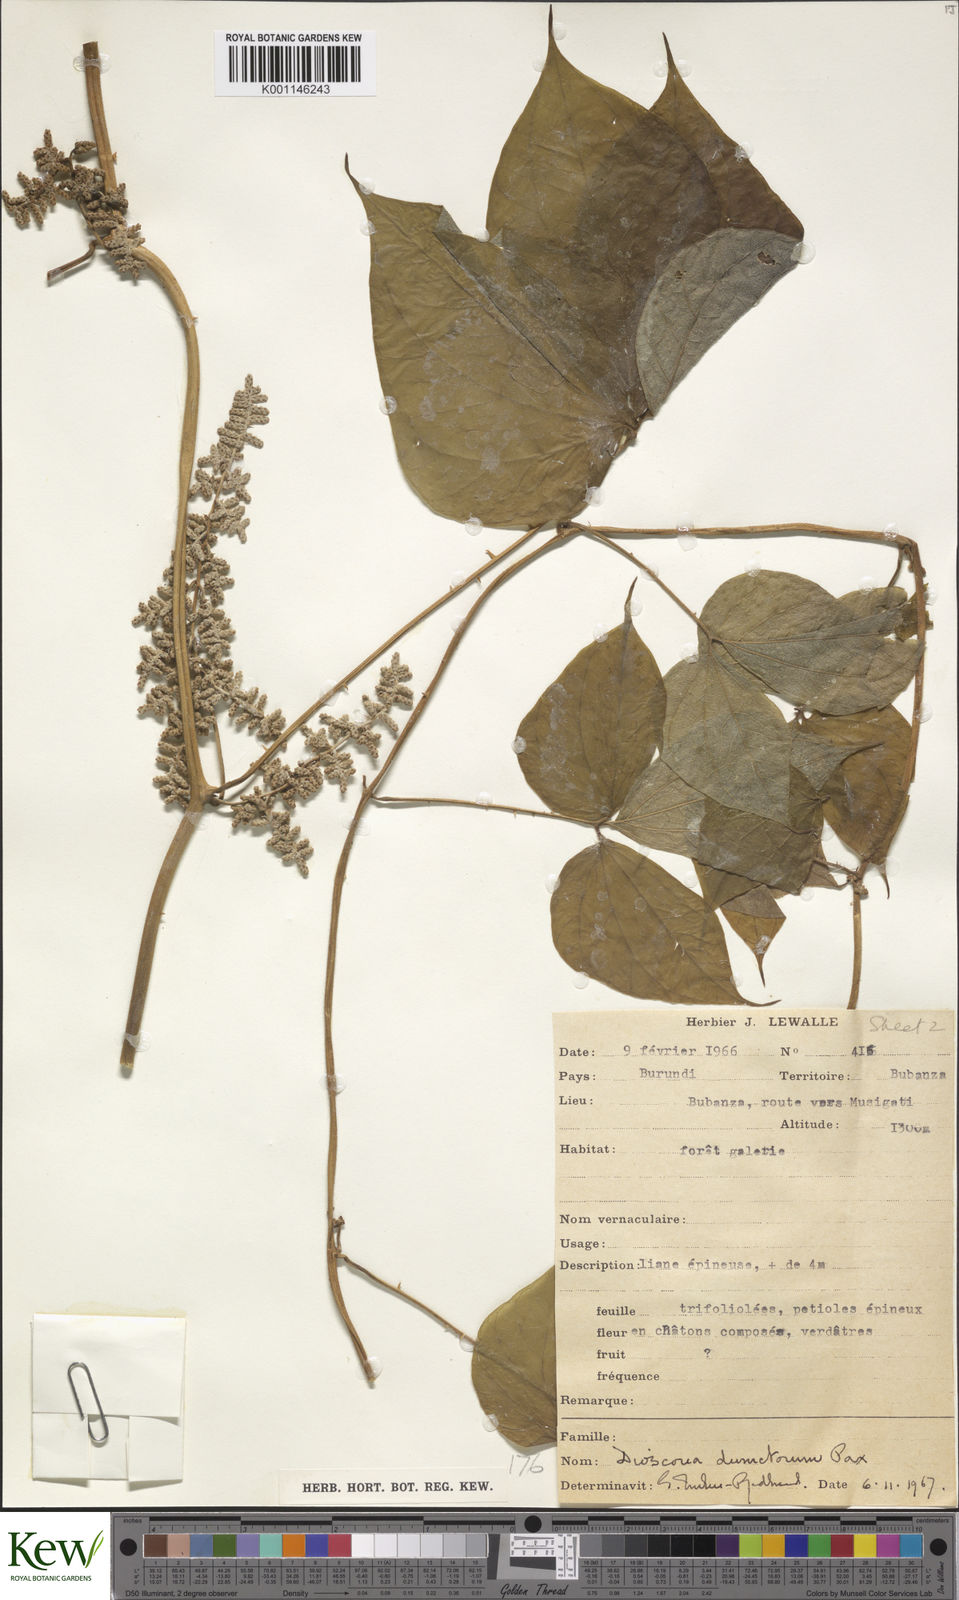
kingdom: Plantae
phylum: Tracheophyta
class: Liliopsida
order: Dioscoreales
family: Dioscoreaceae
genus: Dioscorea
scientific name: Dioscorea dumetorum
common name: African bitter yam
